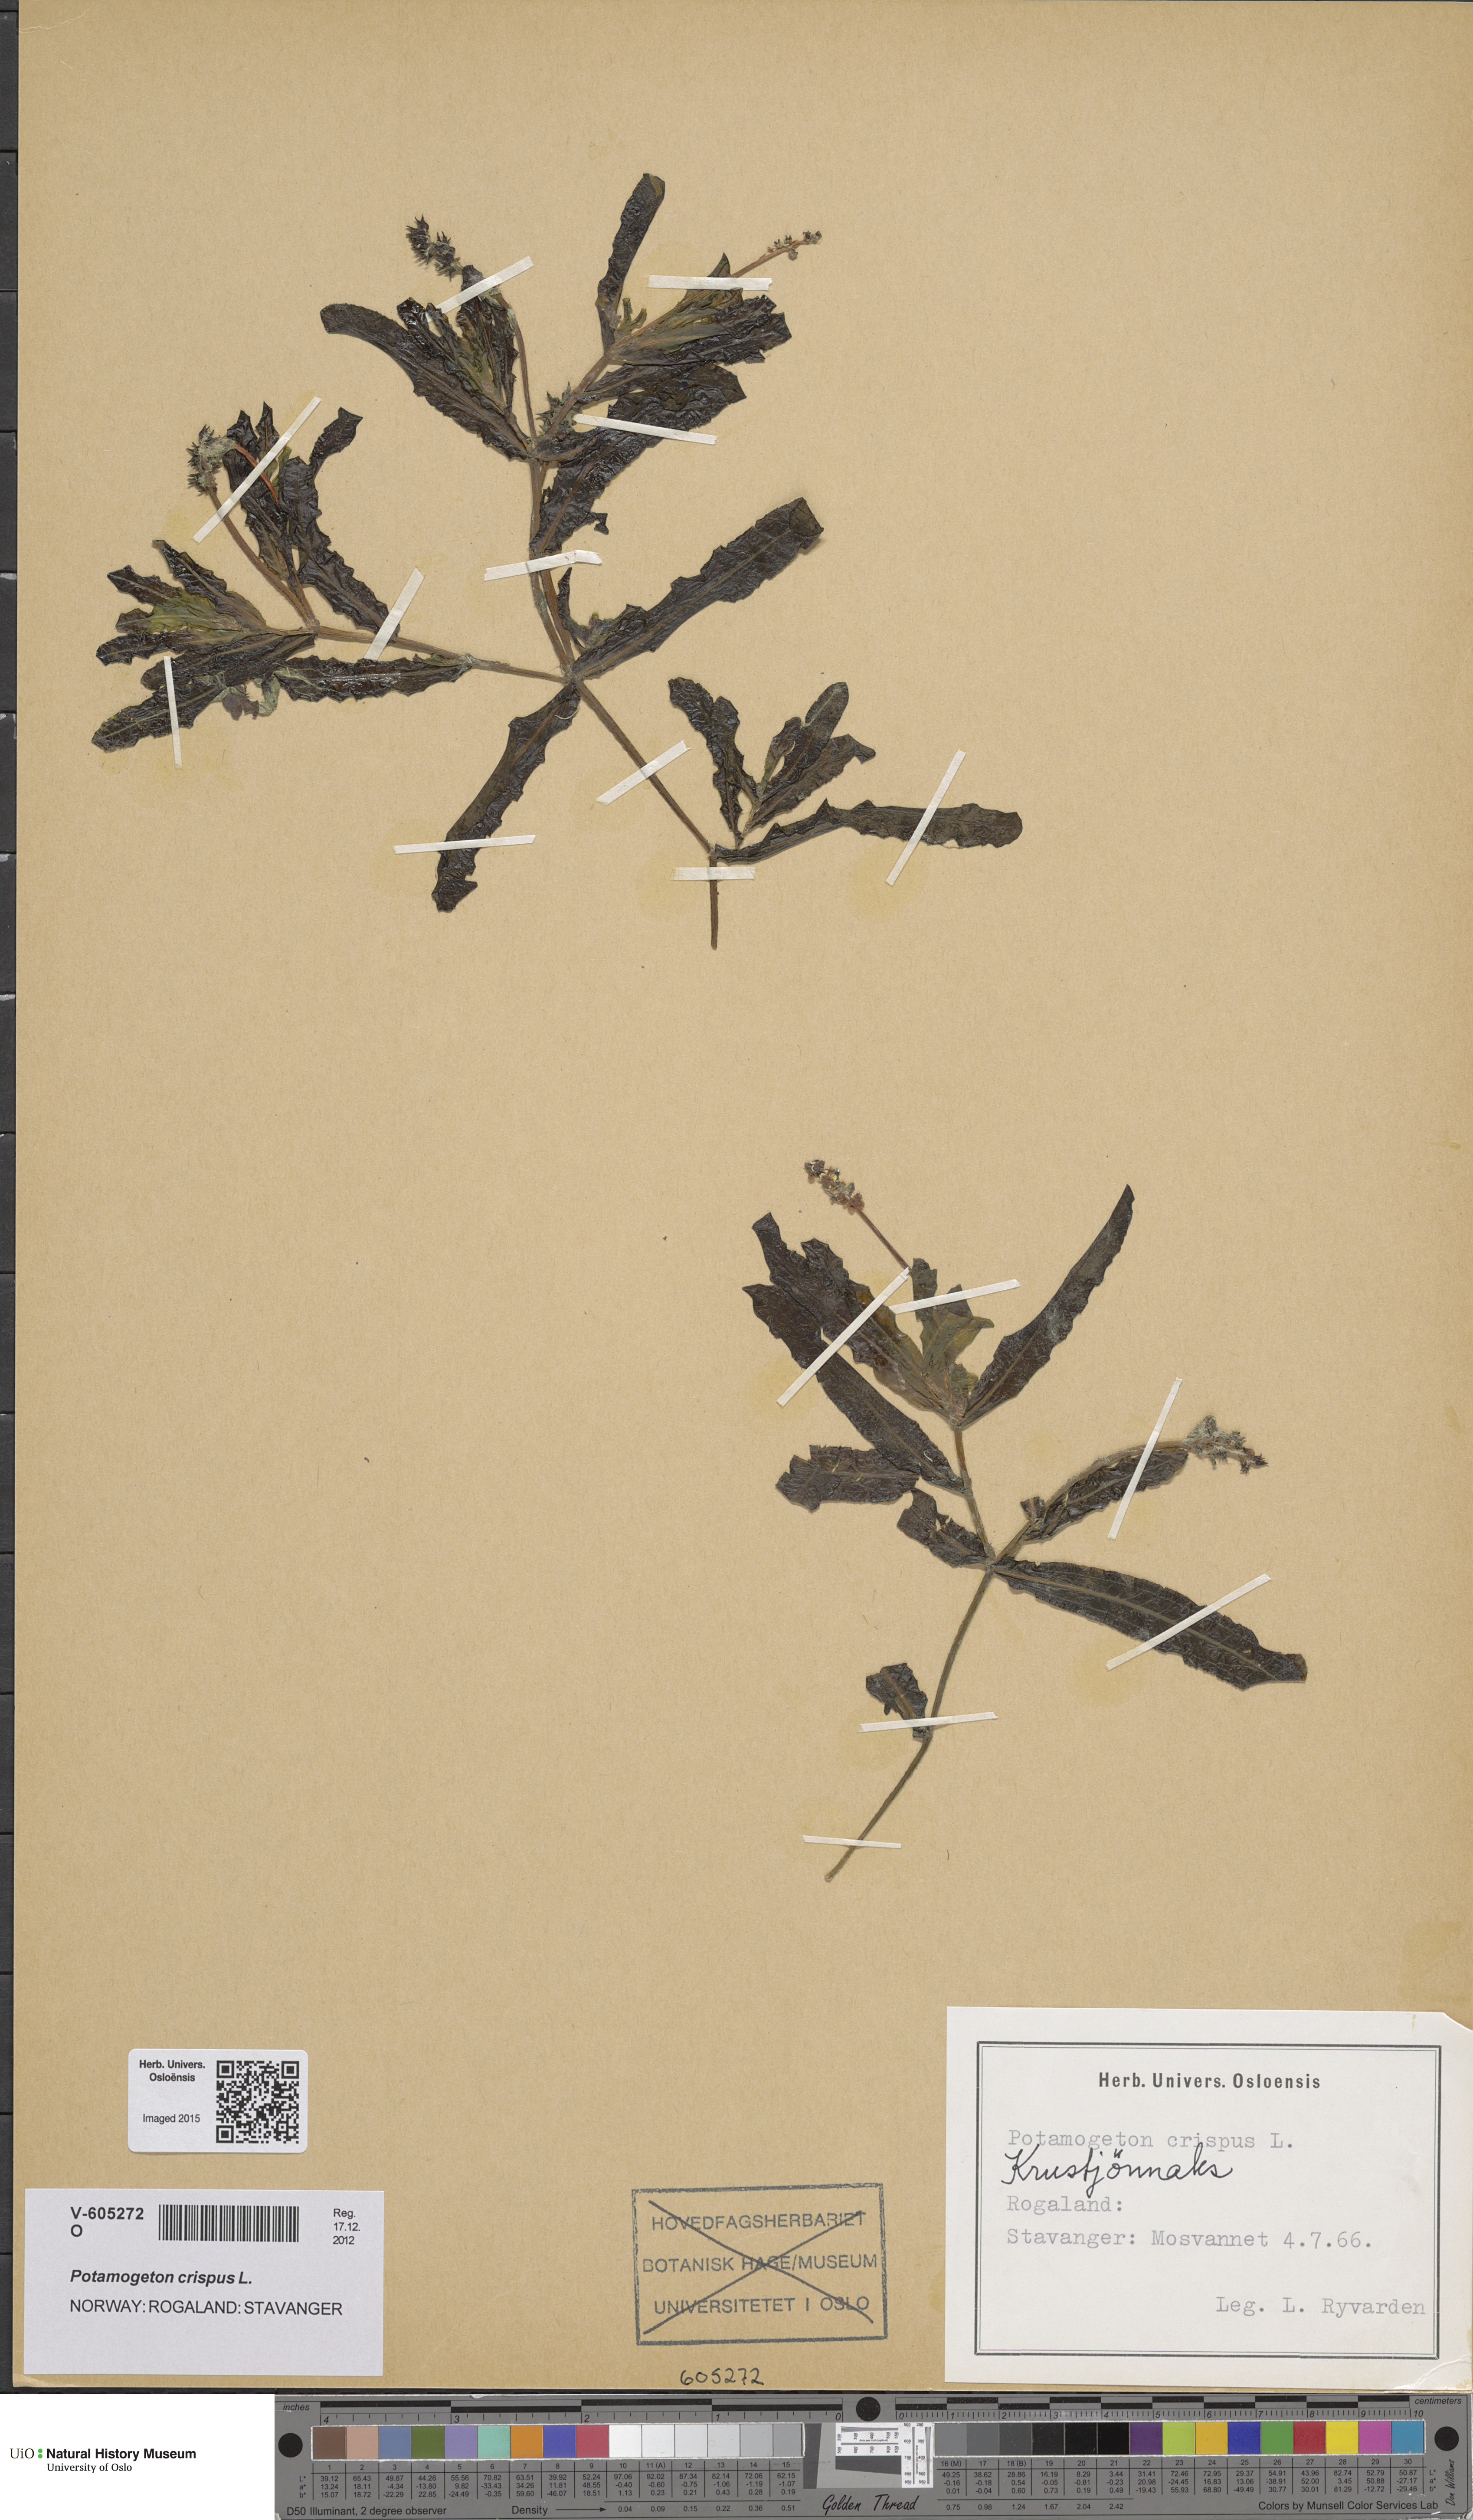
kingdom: Plantae
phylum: Tracheophyta
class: Liliopsida
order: Alismatales
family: Potamogetonaceae
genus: Potamogeton
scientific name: Potamogeton crispus
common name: Curled pondweed
